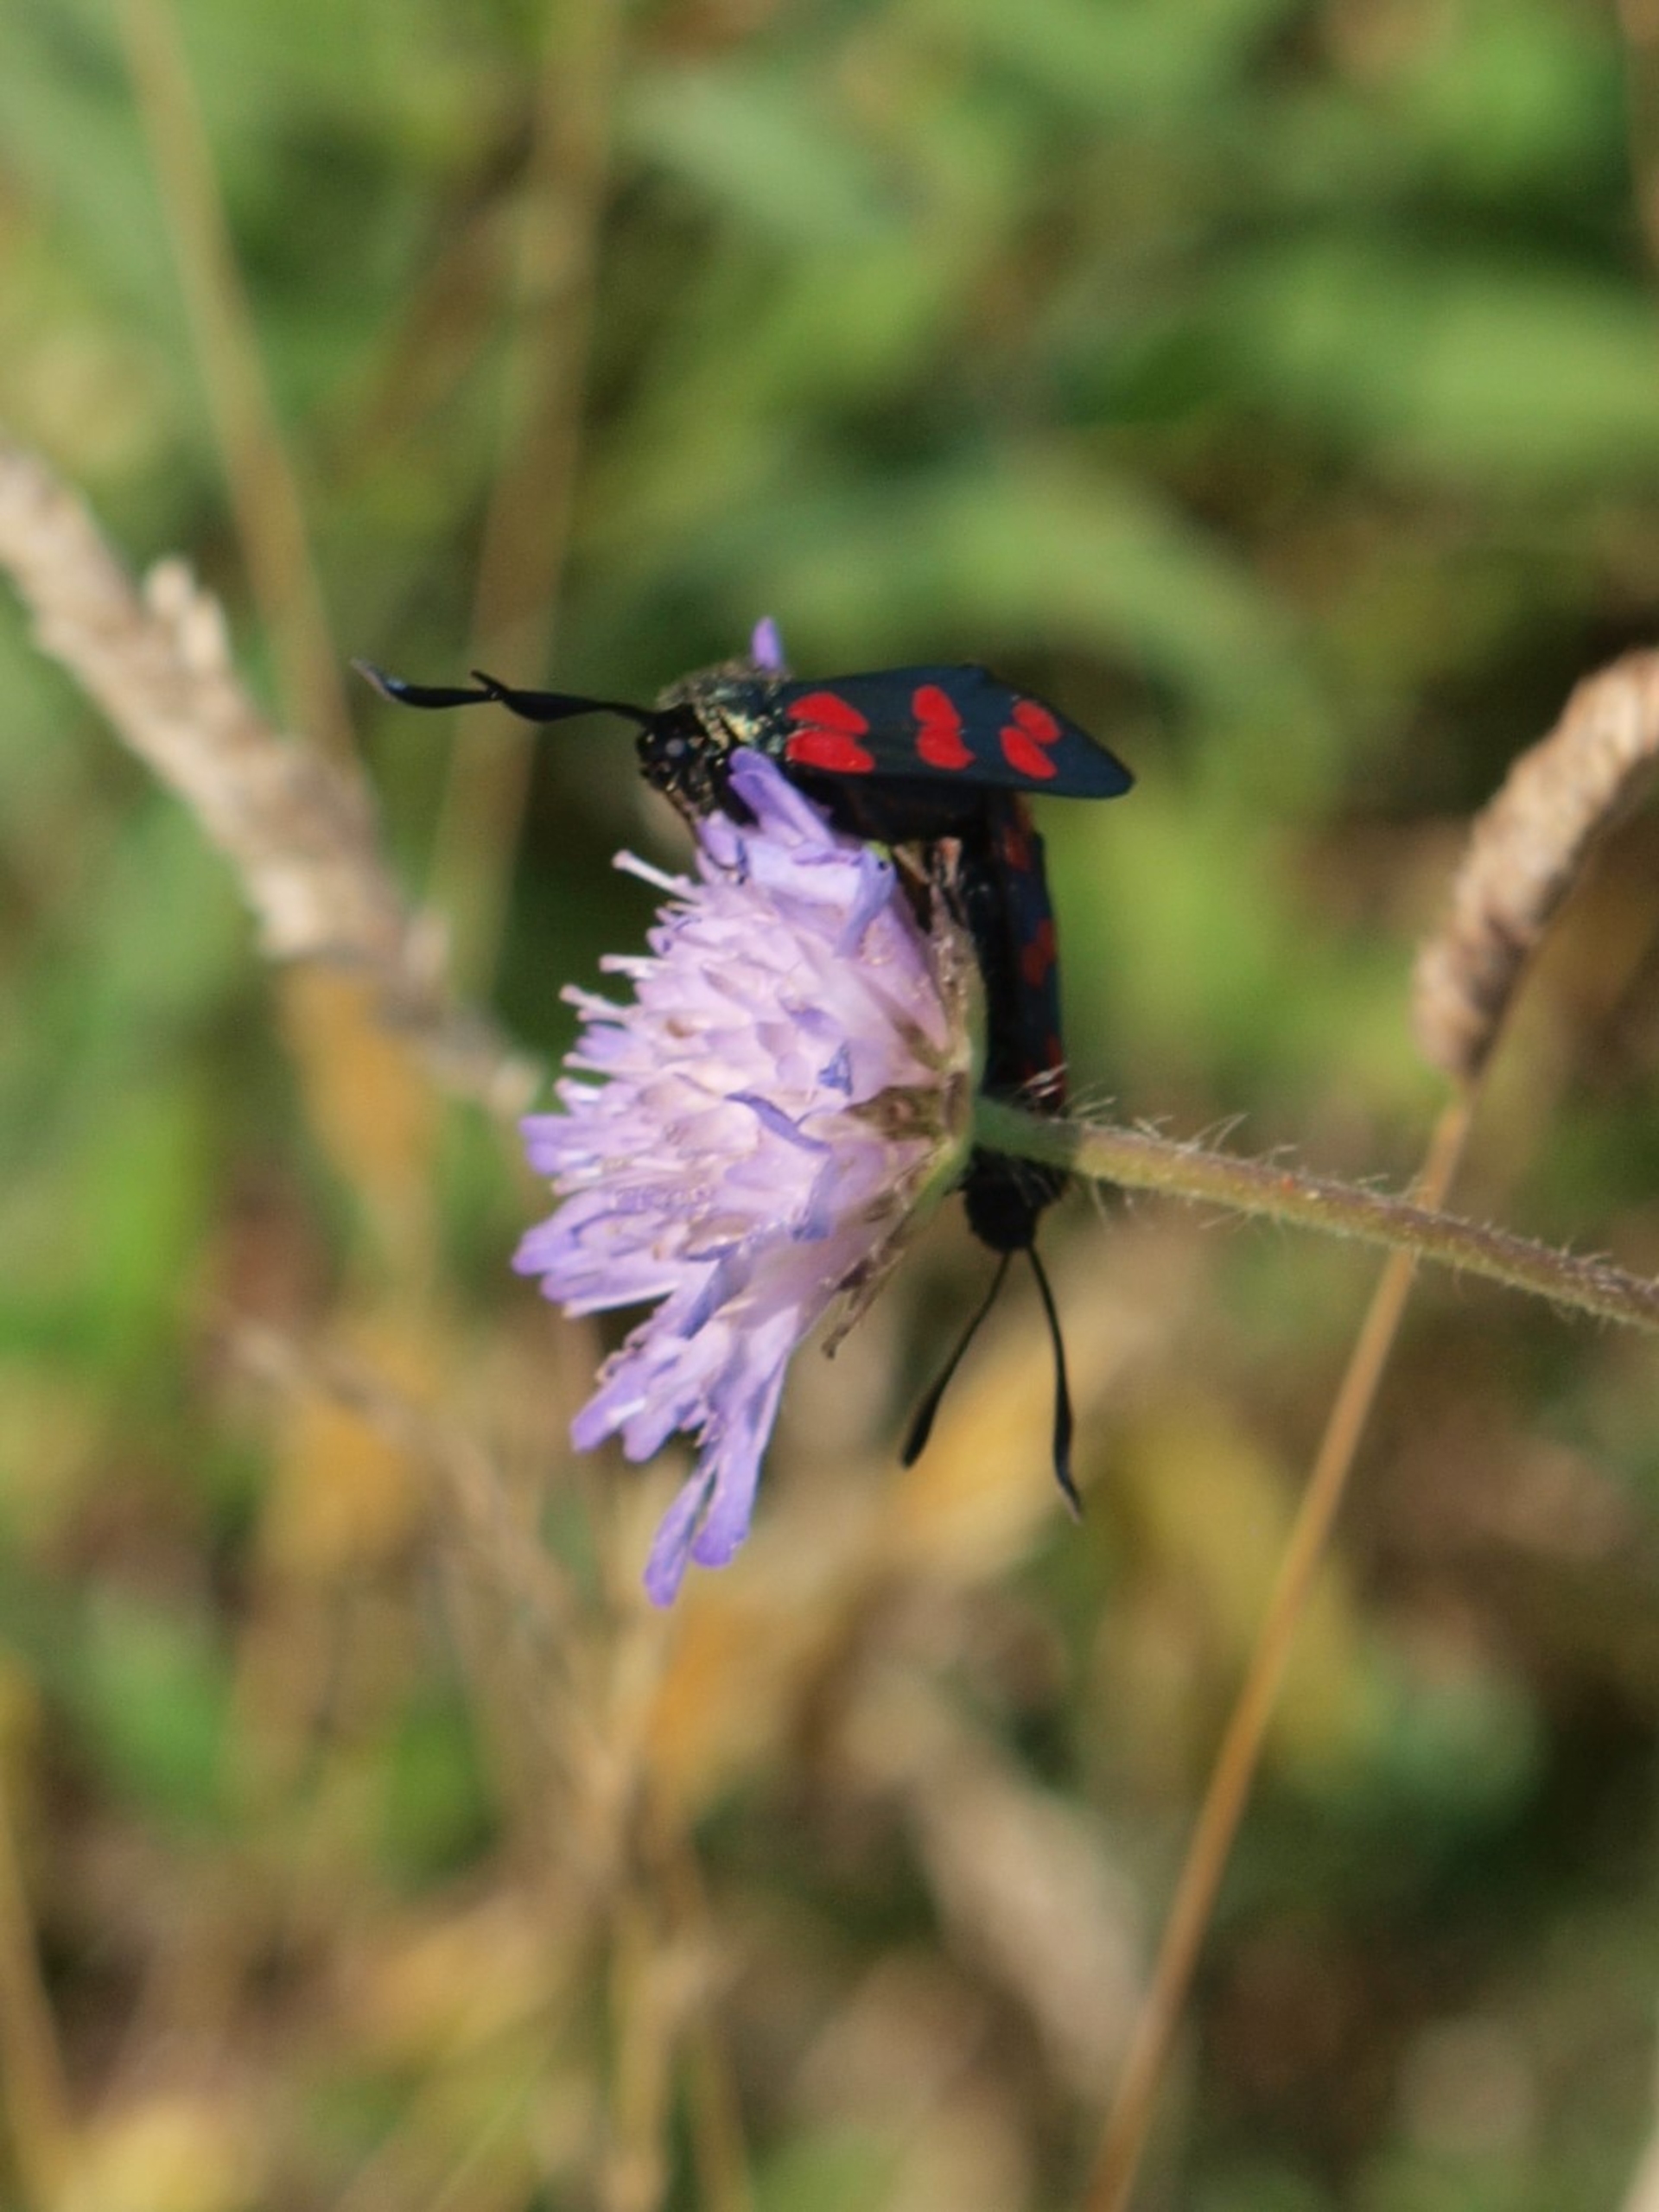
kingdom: Animalia
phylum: Arthropoda
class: Insecta
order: Lepidoptera
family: Zygaenidae
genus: Zygaena
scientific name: Zygaena filipendulae
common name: Seksplettet køllesværmer
